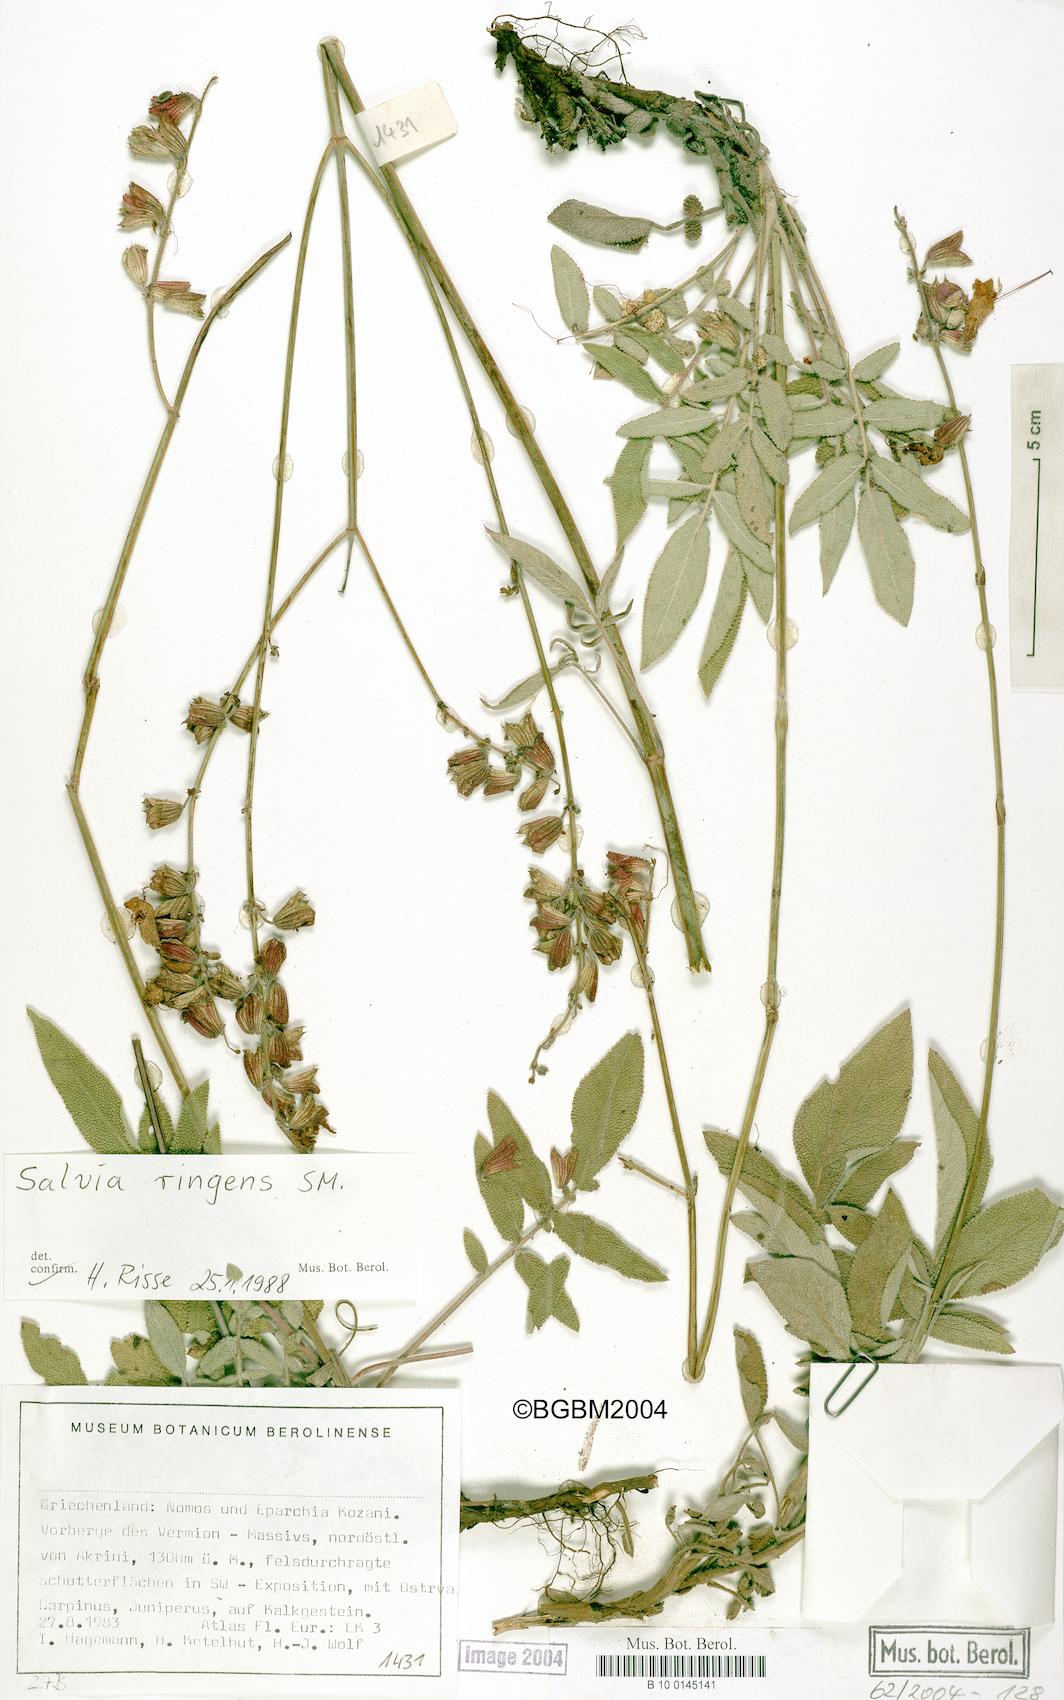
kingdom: Plantae
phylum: Tracheophyta
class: Magnoliopsida
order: Lamiales
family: Lamiaceae
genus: Salvia
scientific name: Salvia ringens
